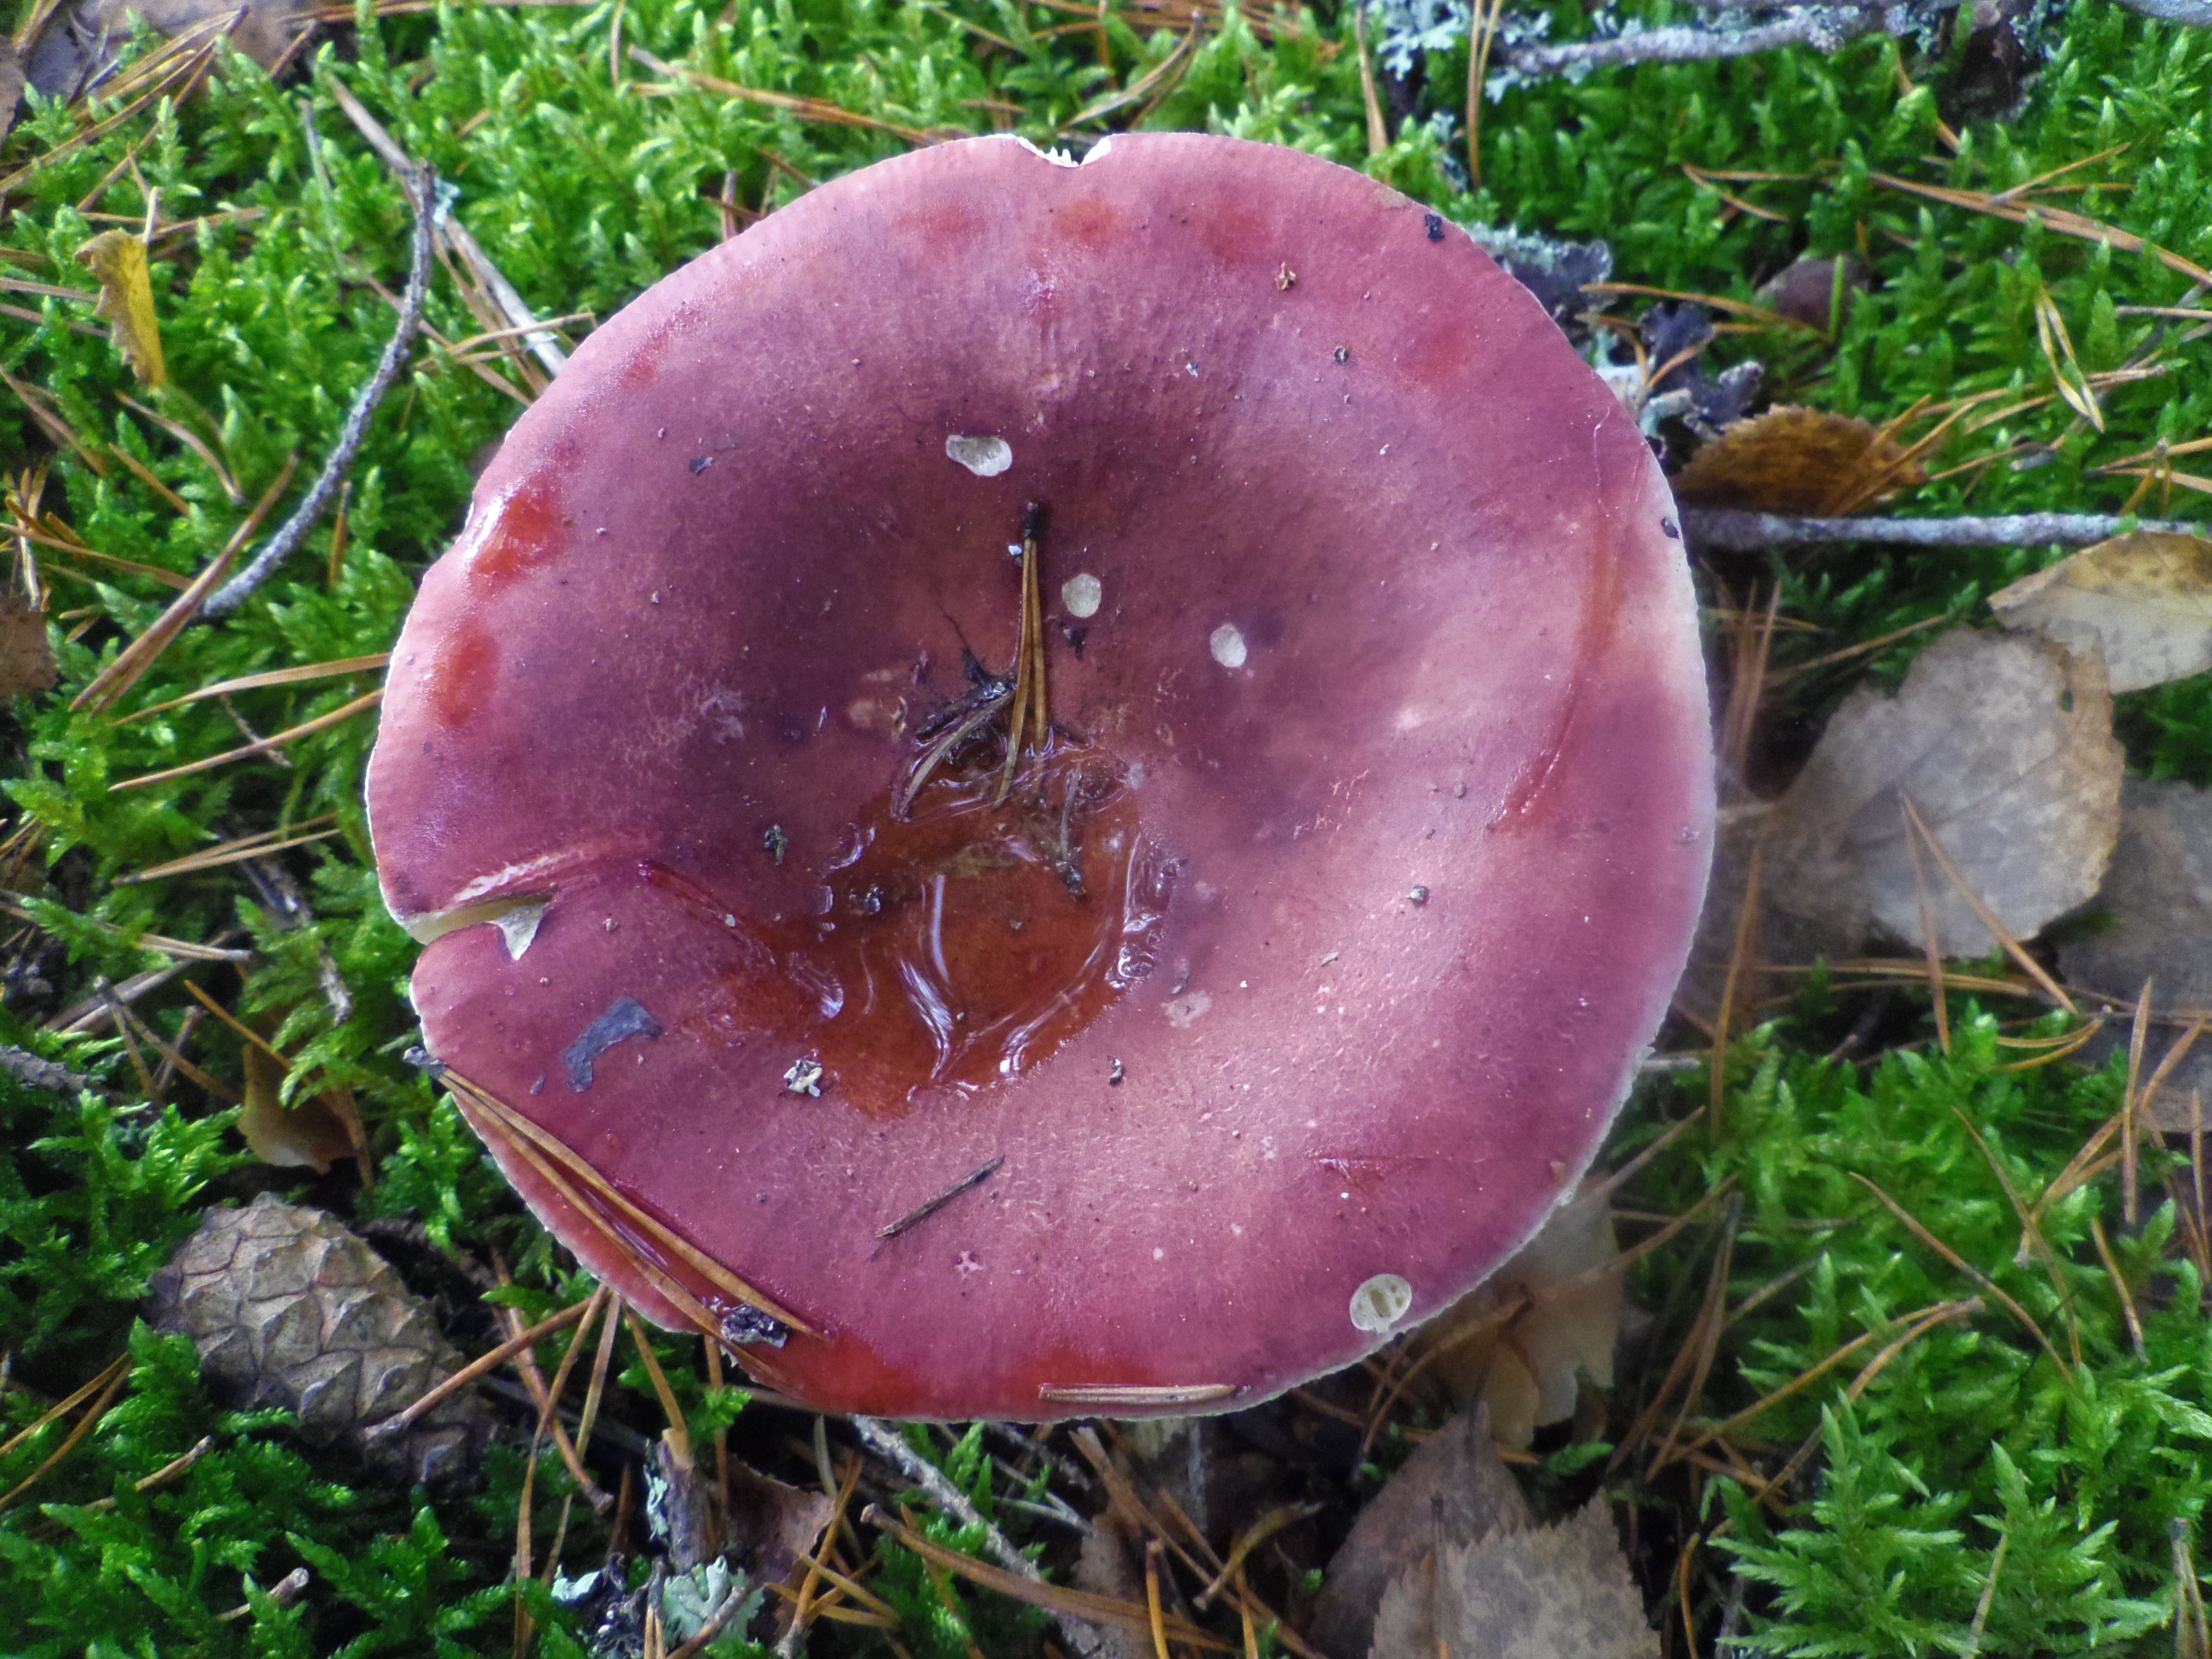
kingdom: Fungi
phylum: Basidiomycota
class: Agaricomycetes
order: Russulales
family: Russulaceae
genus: Russula
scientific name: Russula vinosa
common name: Darkening brittlegill
